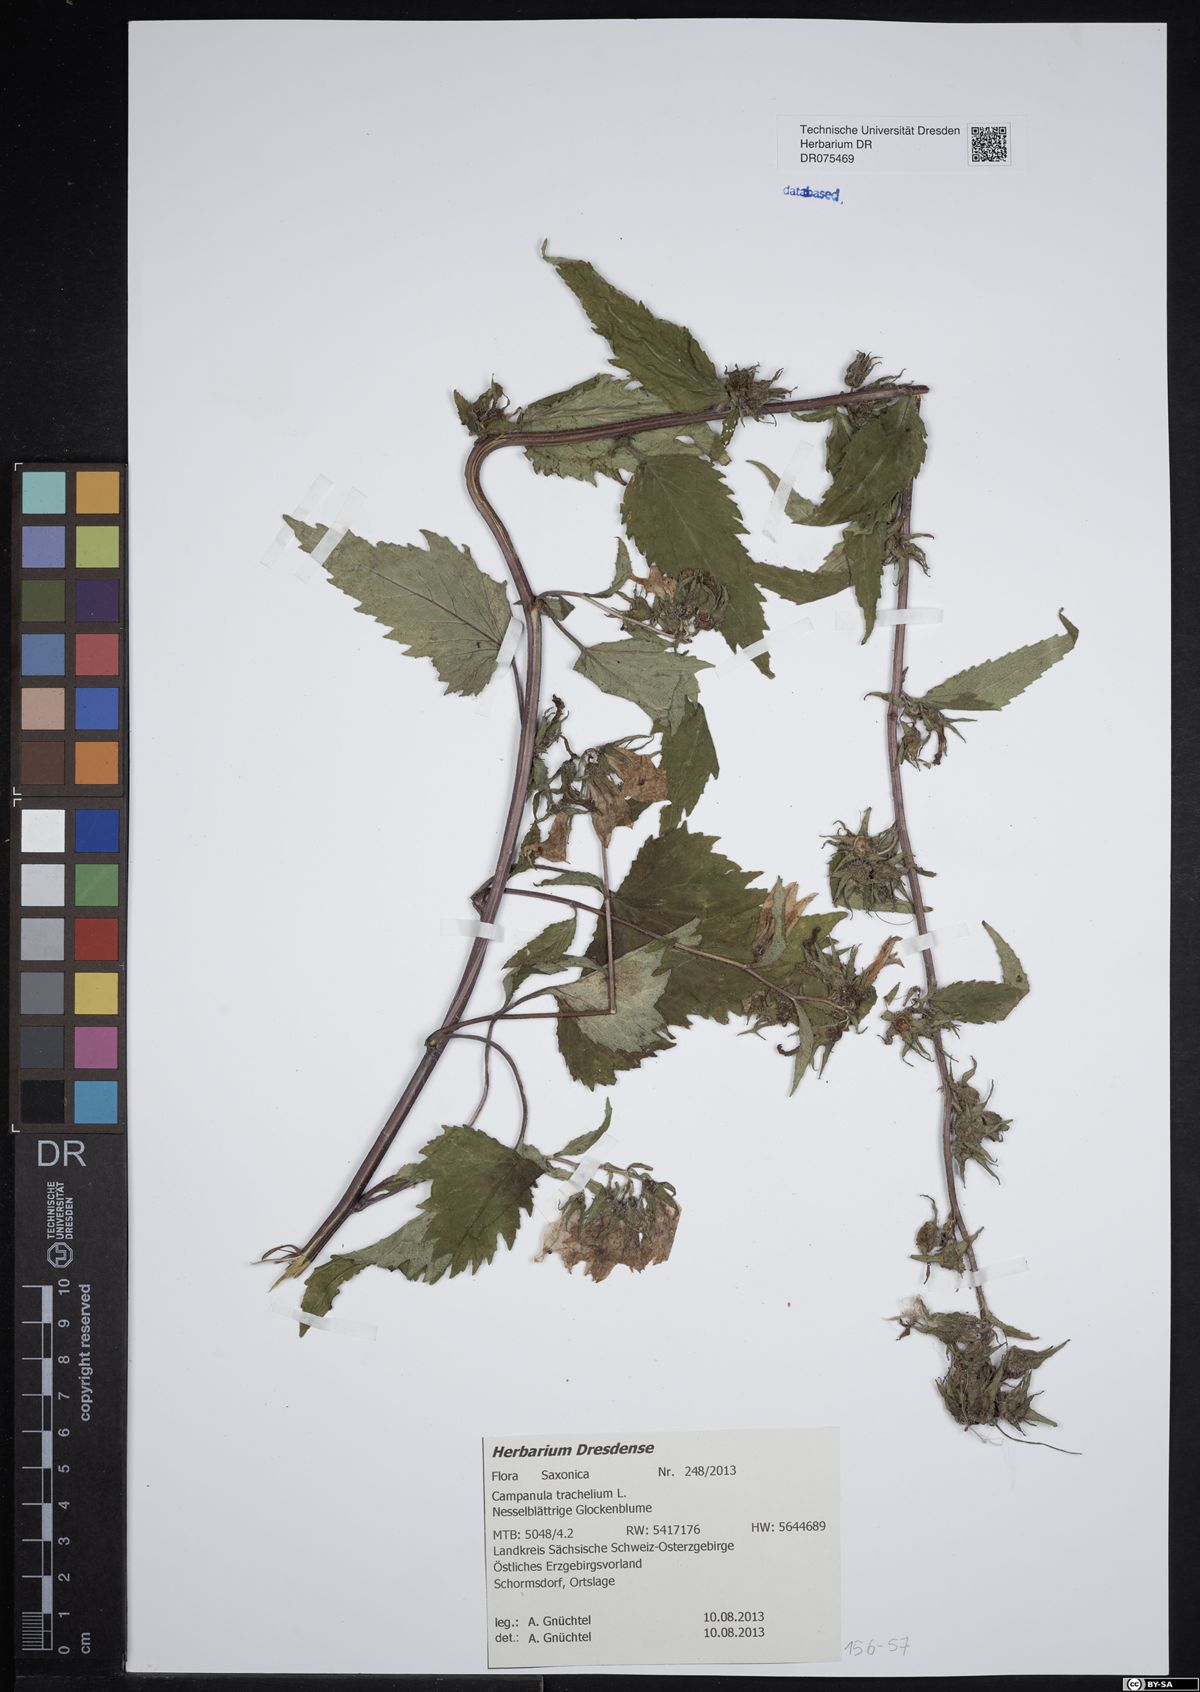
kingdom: Plantae
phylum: Tracheophyta
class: Magnoliopsida
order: Asterales
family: Campanulaceae
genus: Campanula
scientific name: Campanula trachelium
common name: Nettle-leaved bellflower
